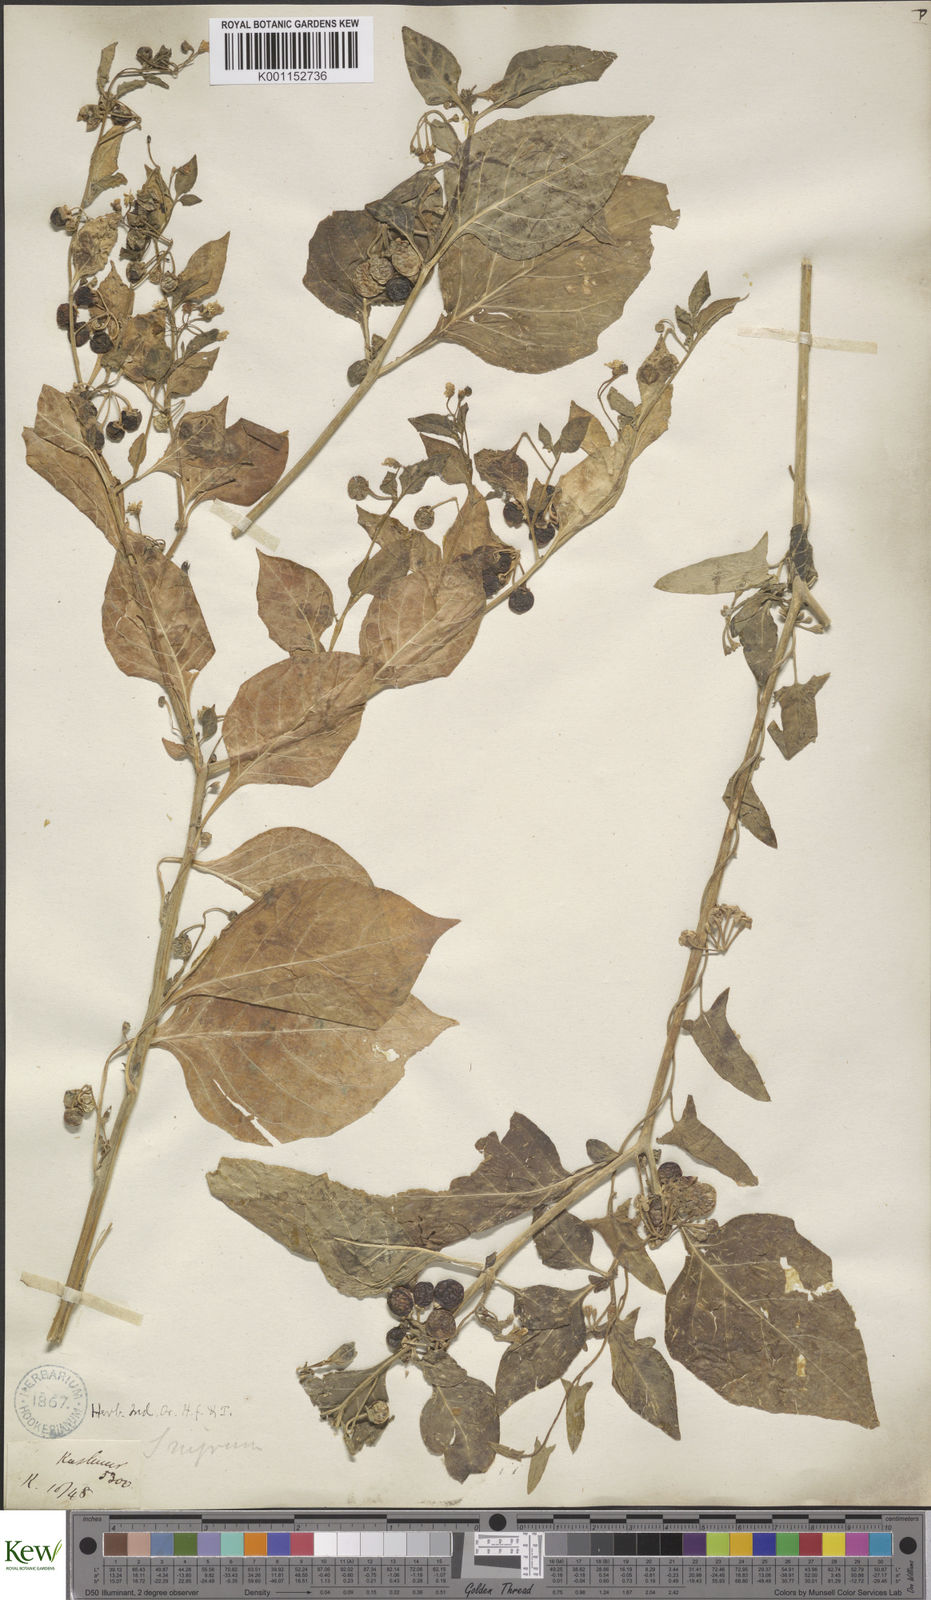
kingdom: Plantae
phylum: Tracheophyta
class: Magnoliopsida
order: Solanales
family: Solanaceae
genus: Solanum
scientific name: Solanum nigrum
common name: Black nightshade
